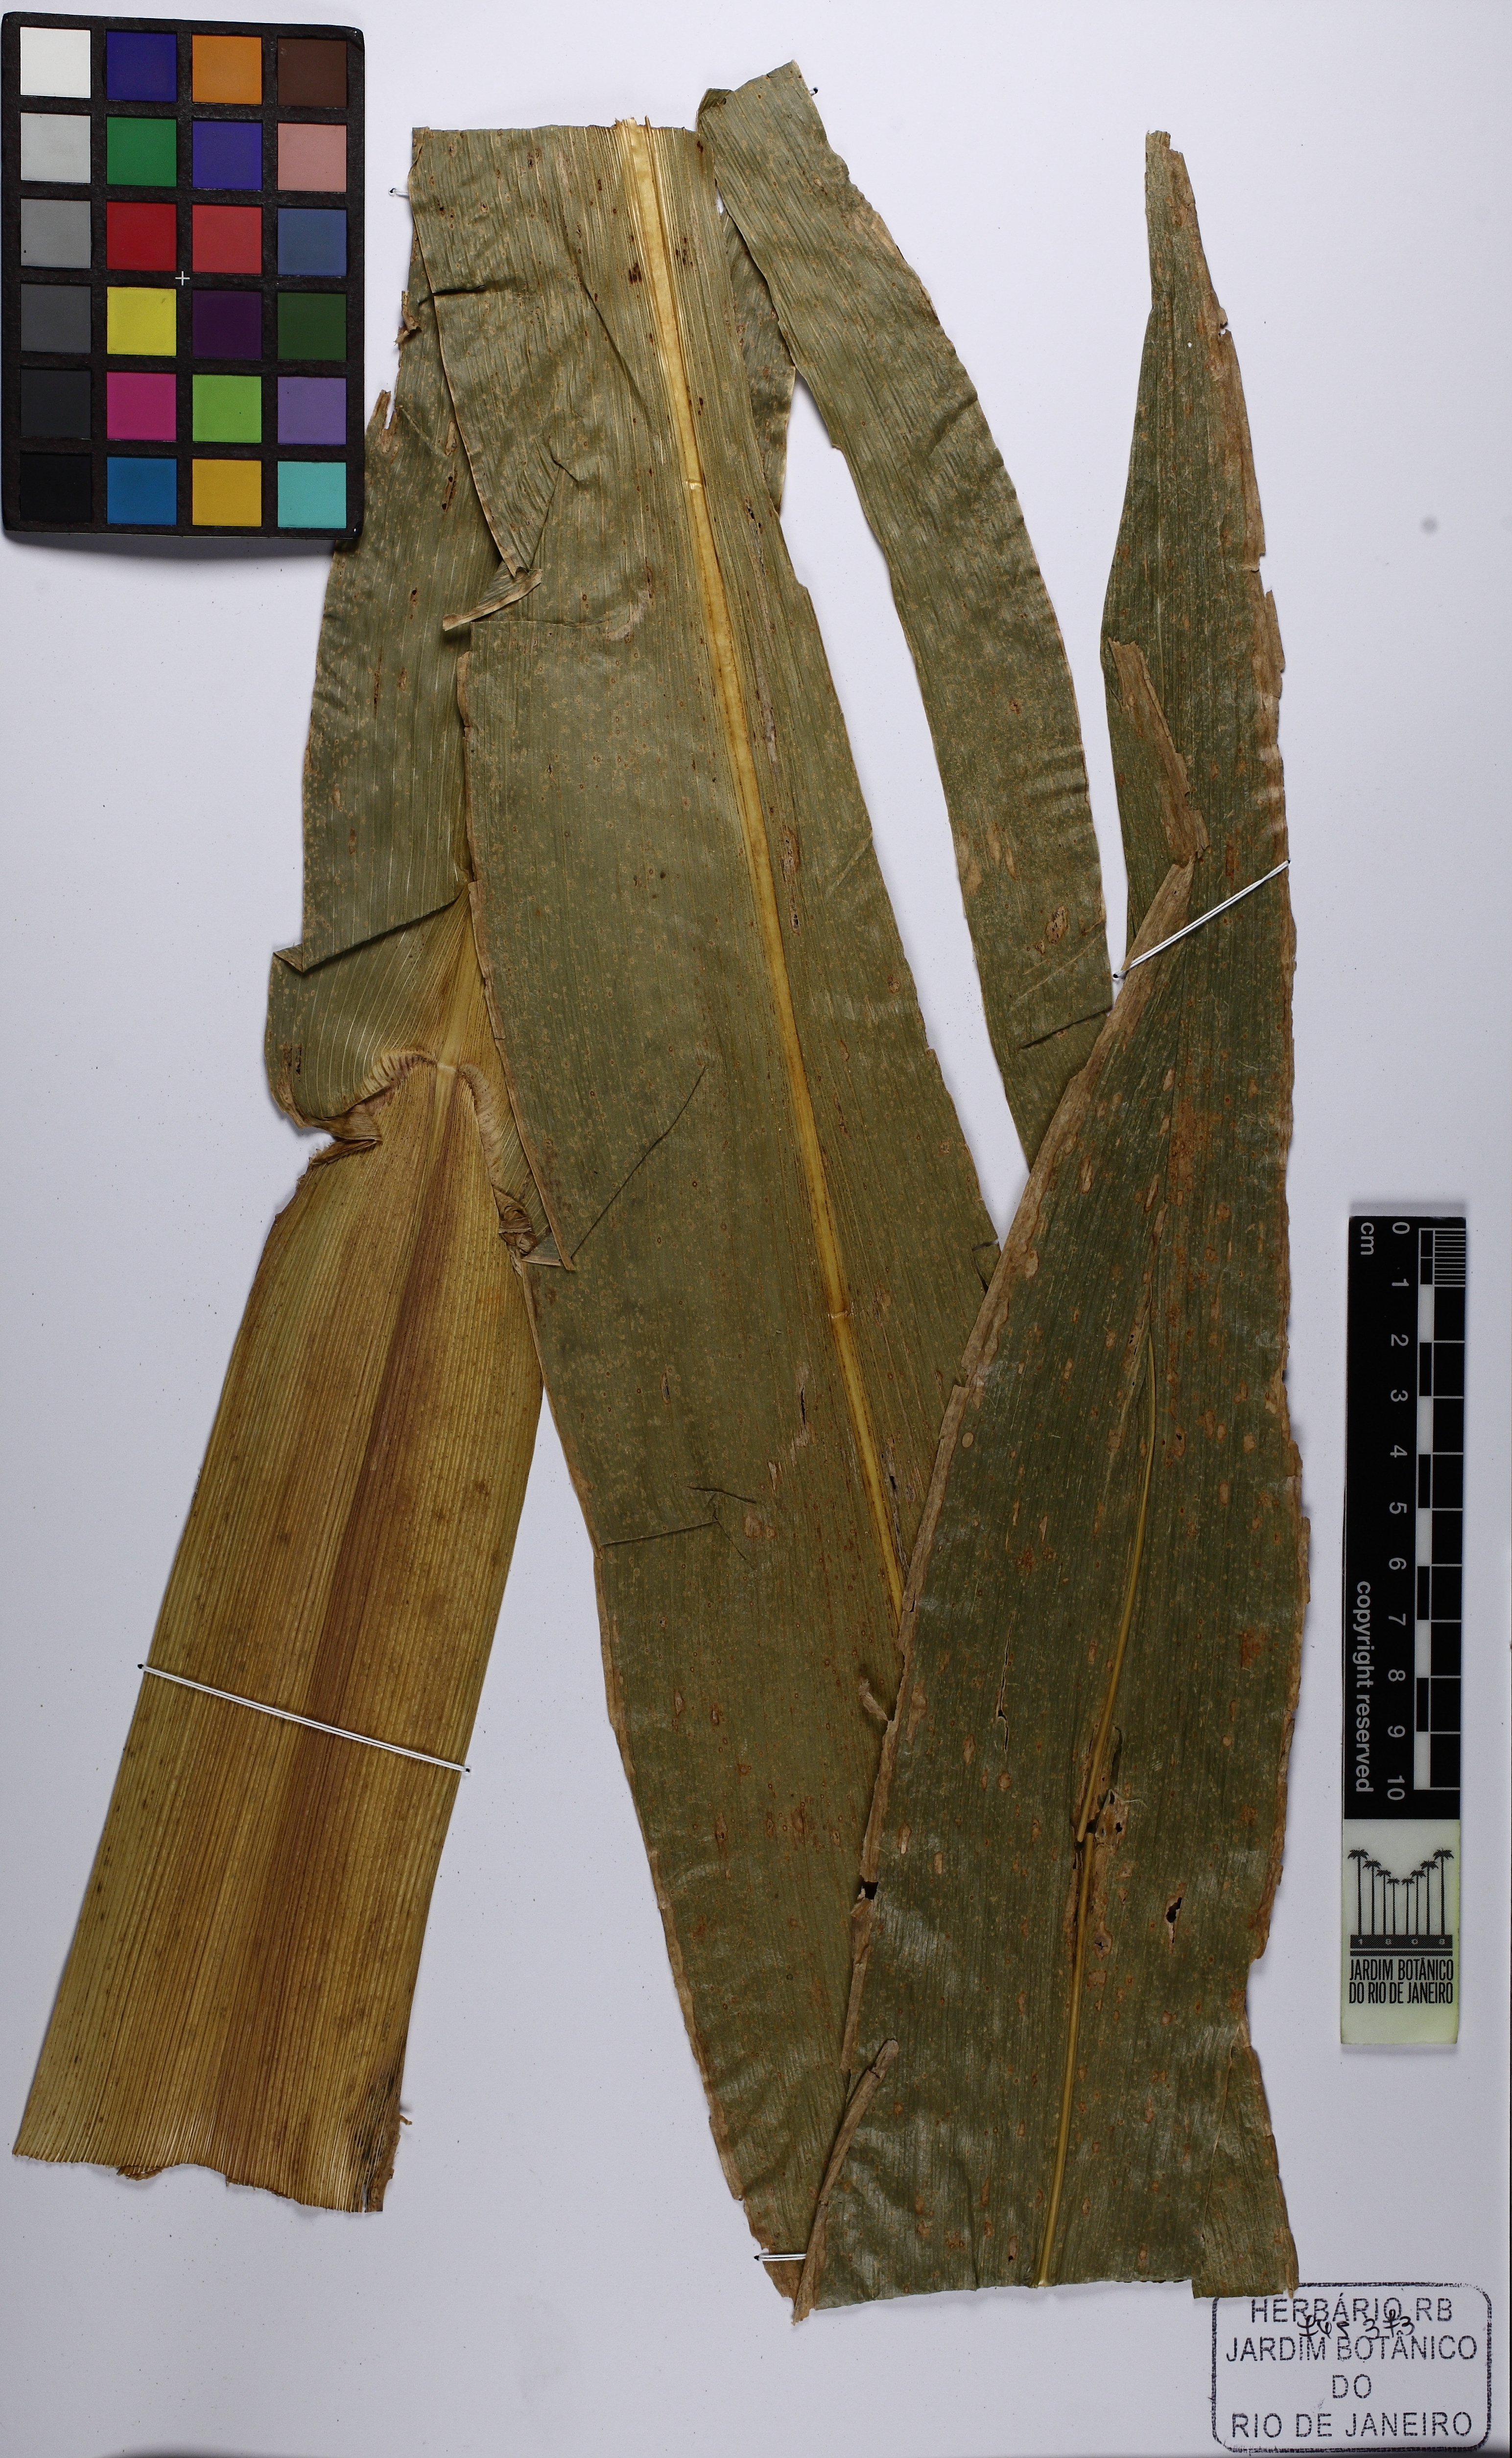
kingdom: Plantae
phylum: Tracheophyta
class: Liliopsida
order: Poales
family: Poaceae
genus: Zea
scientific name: Zea mays
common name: Maize
